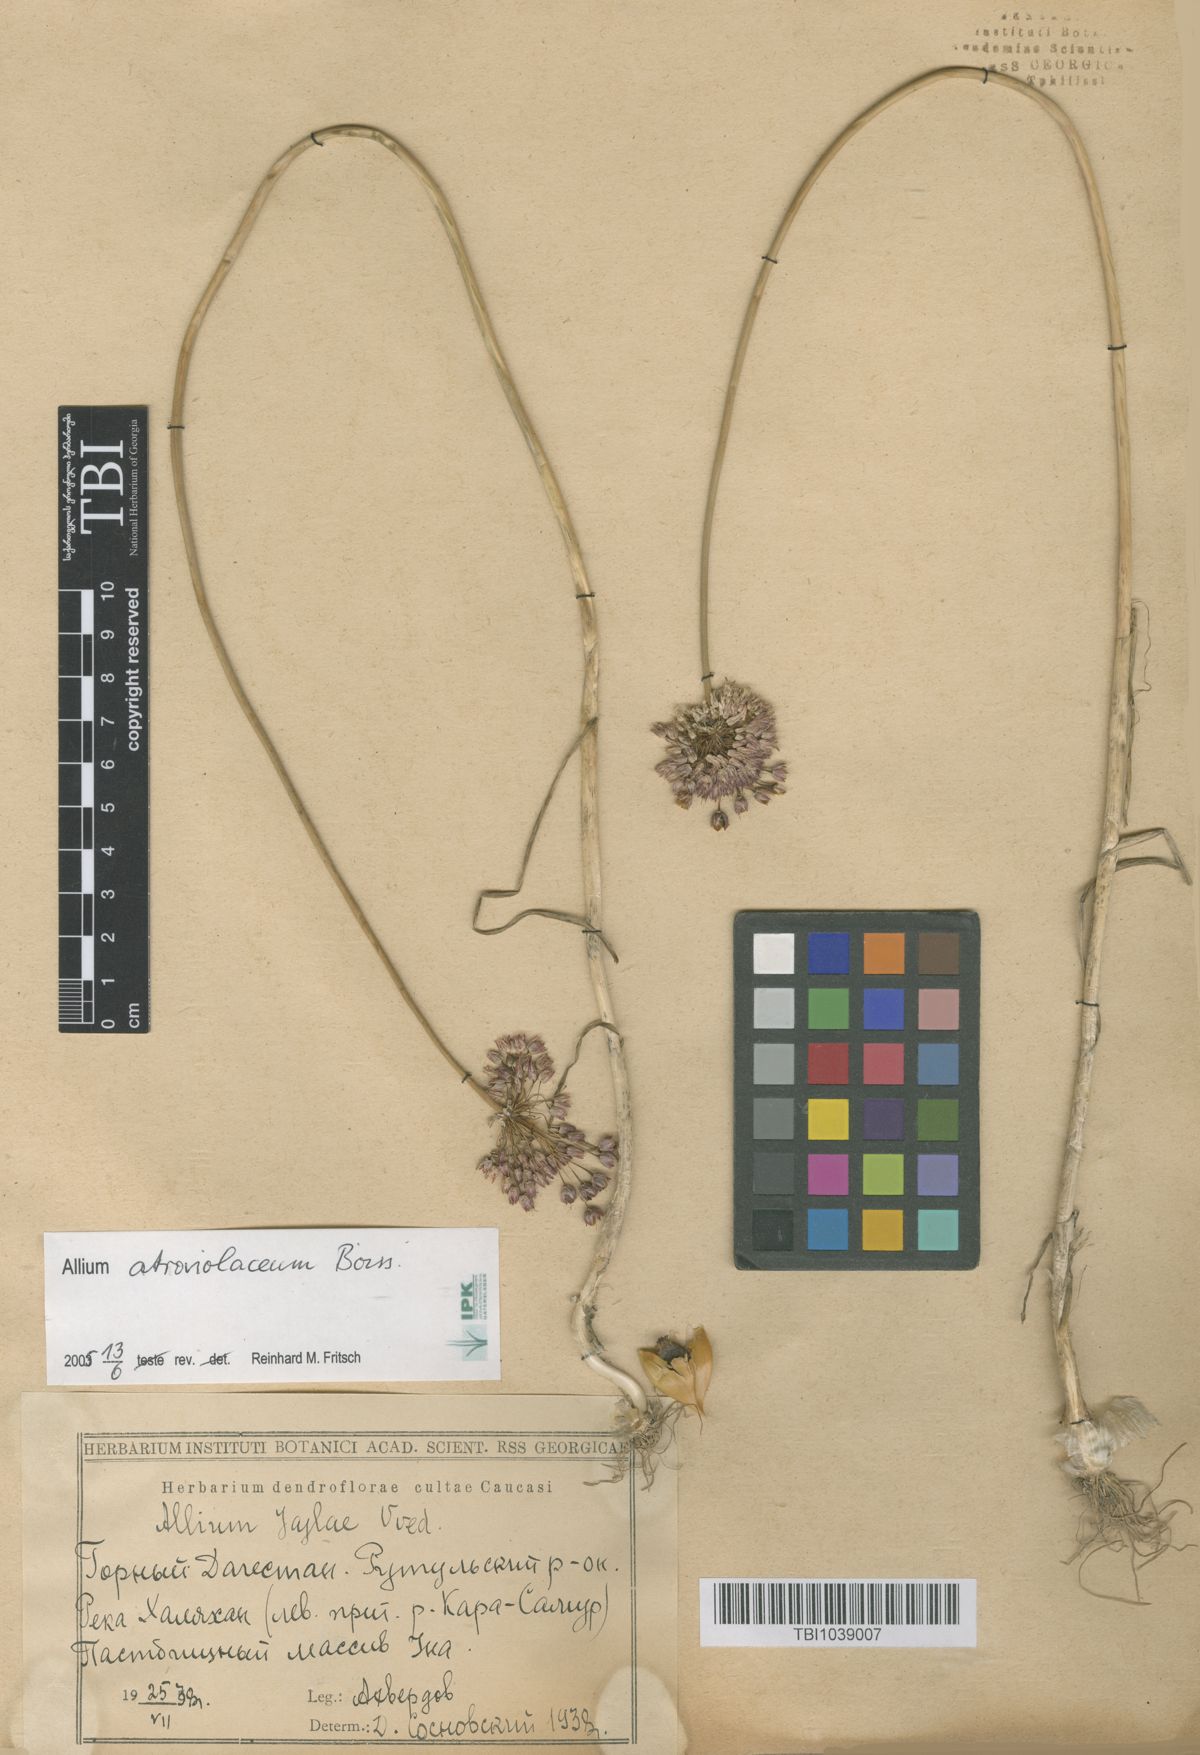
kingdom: Plantae
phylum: Tracheophyta
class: Liliopsida
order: Asparagales
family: Amaryllidaceae
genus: Allium
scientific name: Allium rotundum
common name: Sand leek
